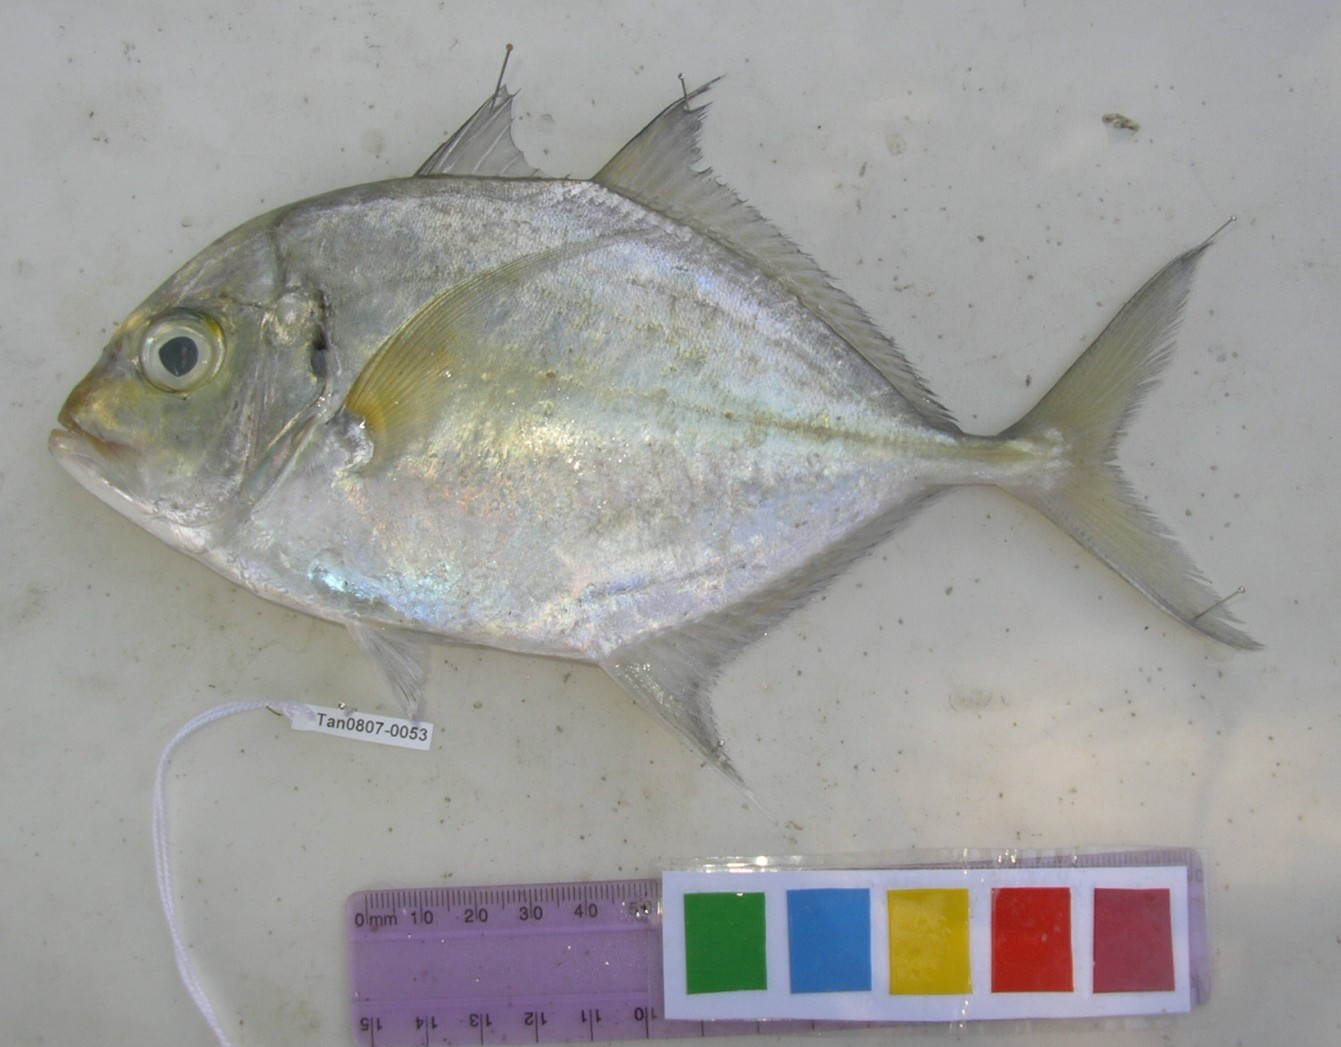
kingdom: Animalia
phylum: Chordata
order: Perciformes
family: Carangidae
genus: Carangoides
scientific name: Carangoides malabaricus
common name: Malabar trevally
